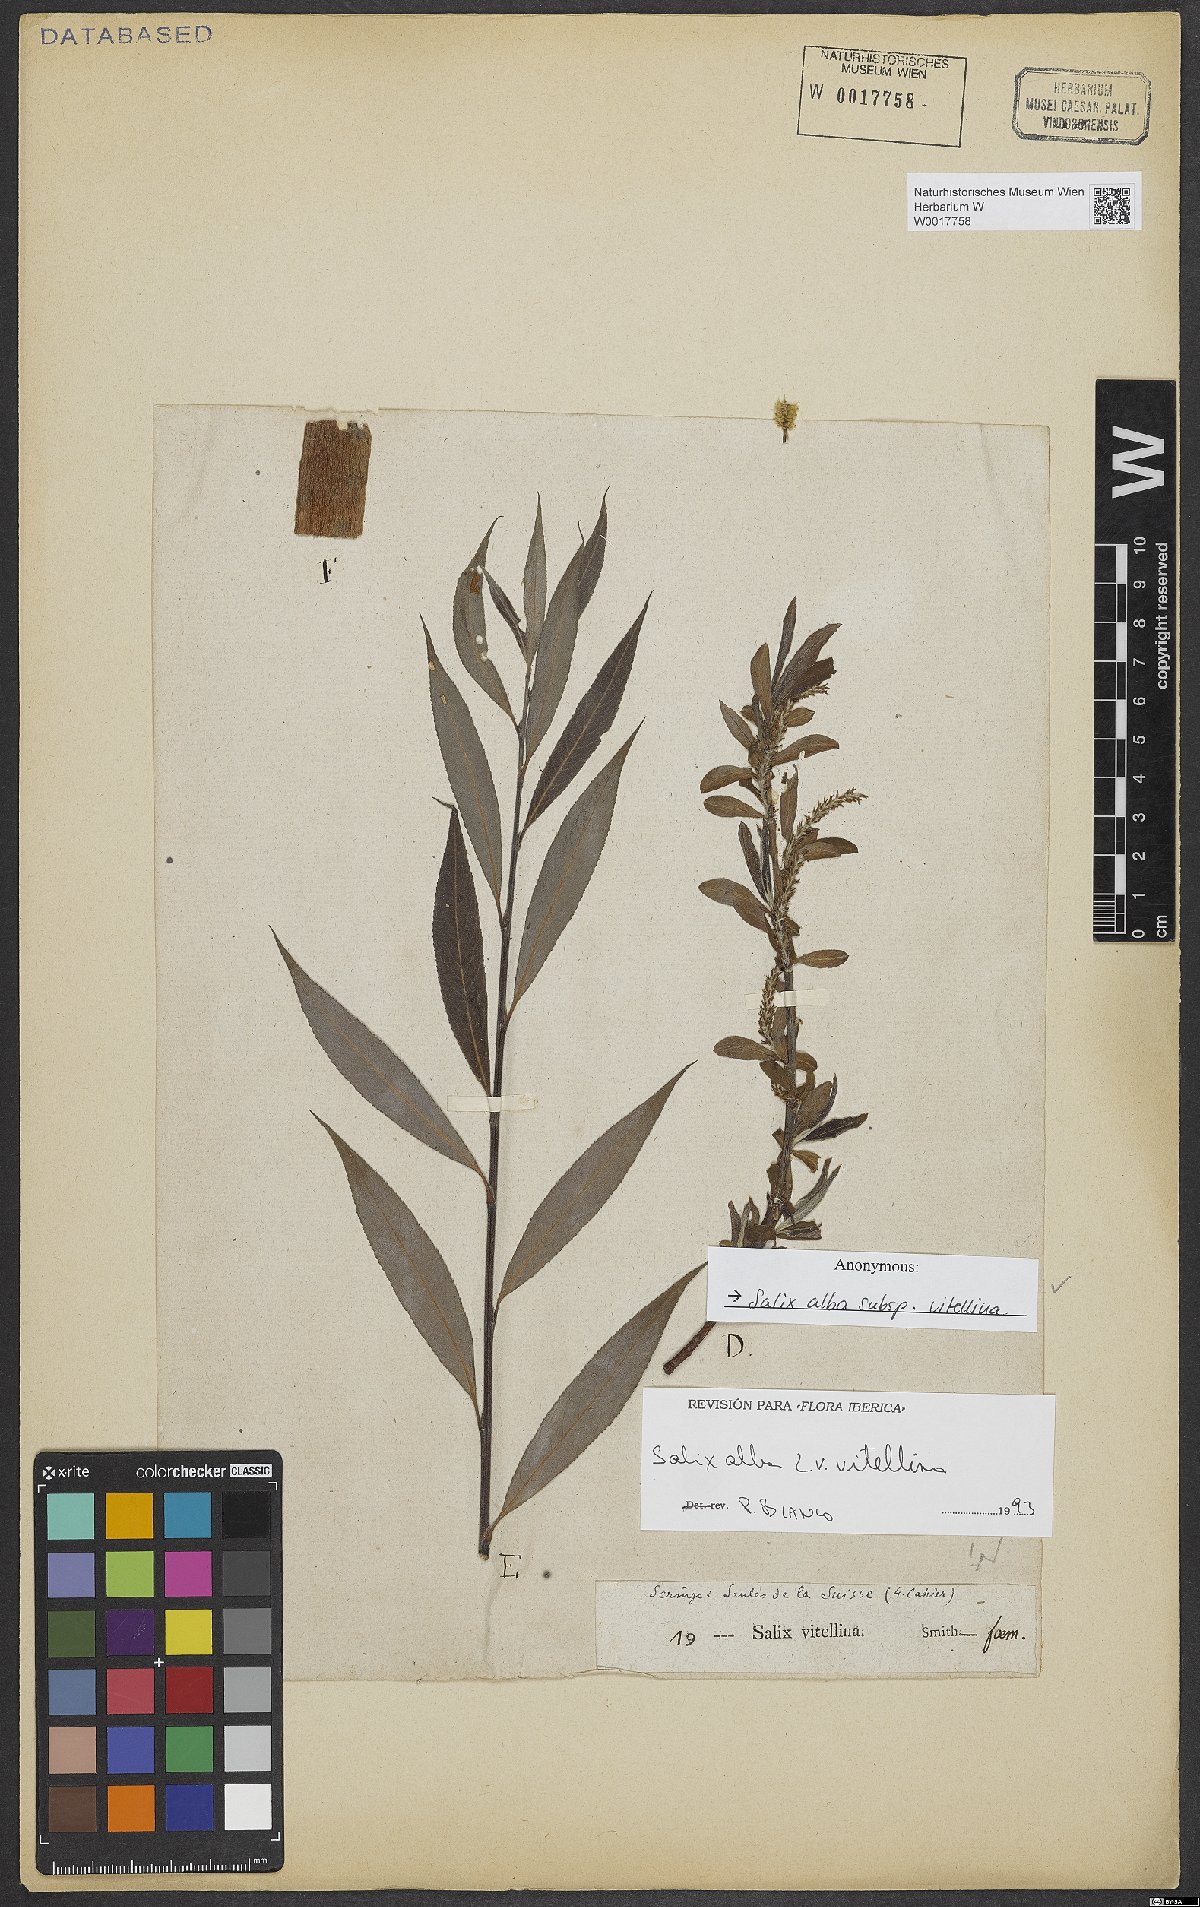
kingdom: Plantae
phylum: Tracheophyta
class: Magnoliopsida
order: Malpighiales
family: Salicaceae
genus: Salix
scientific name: Salix alba
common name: White willow
